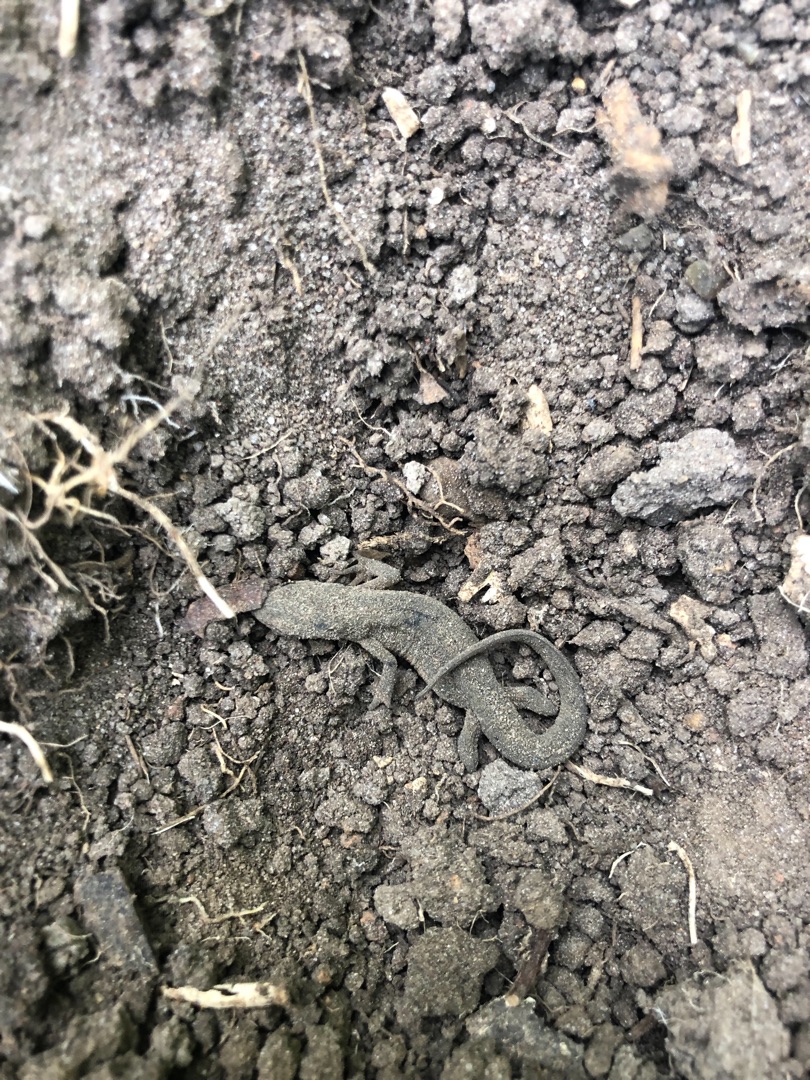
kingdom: Animalia
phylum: Chordata
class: Amphibia
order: Caudata
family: Salamandridae
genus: Lissotriton
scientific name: Lissotriton vulgaris
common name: Lille vandsalamander
